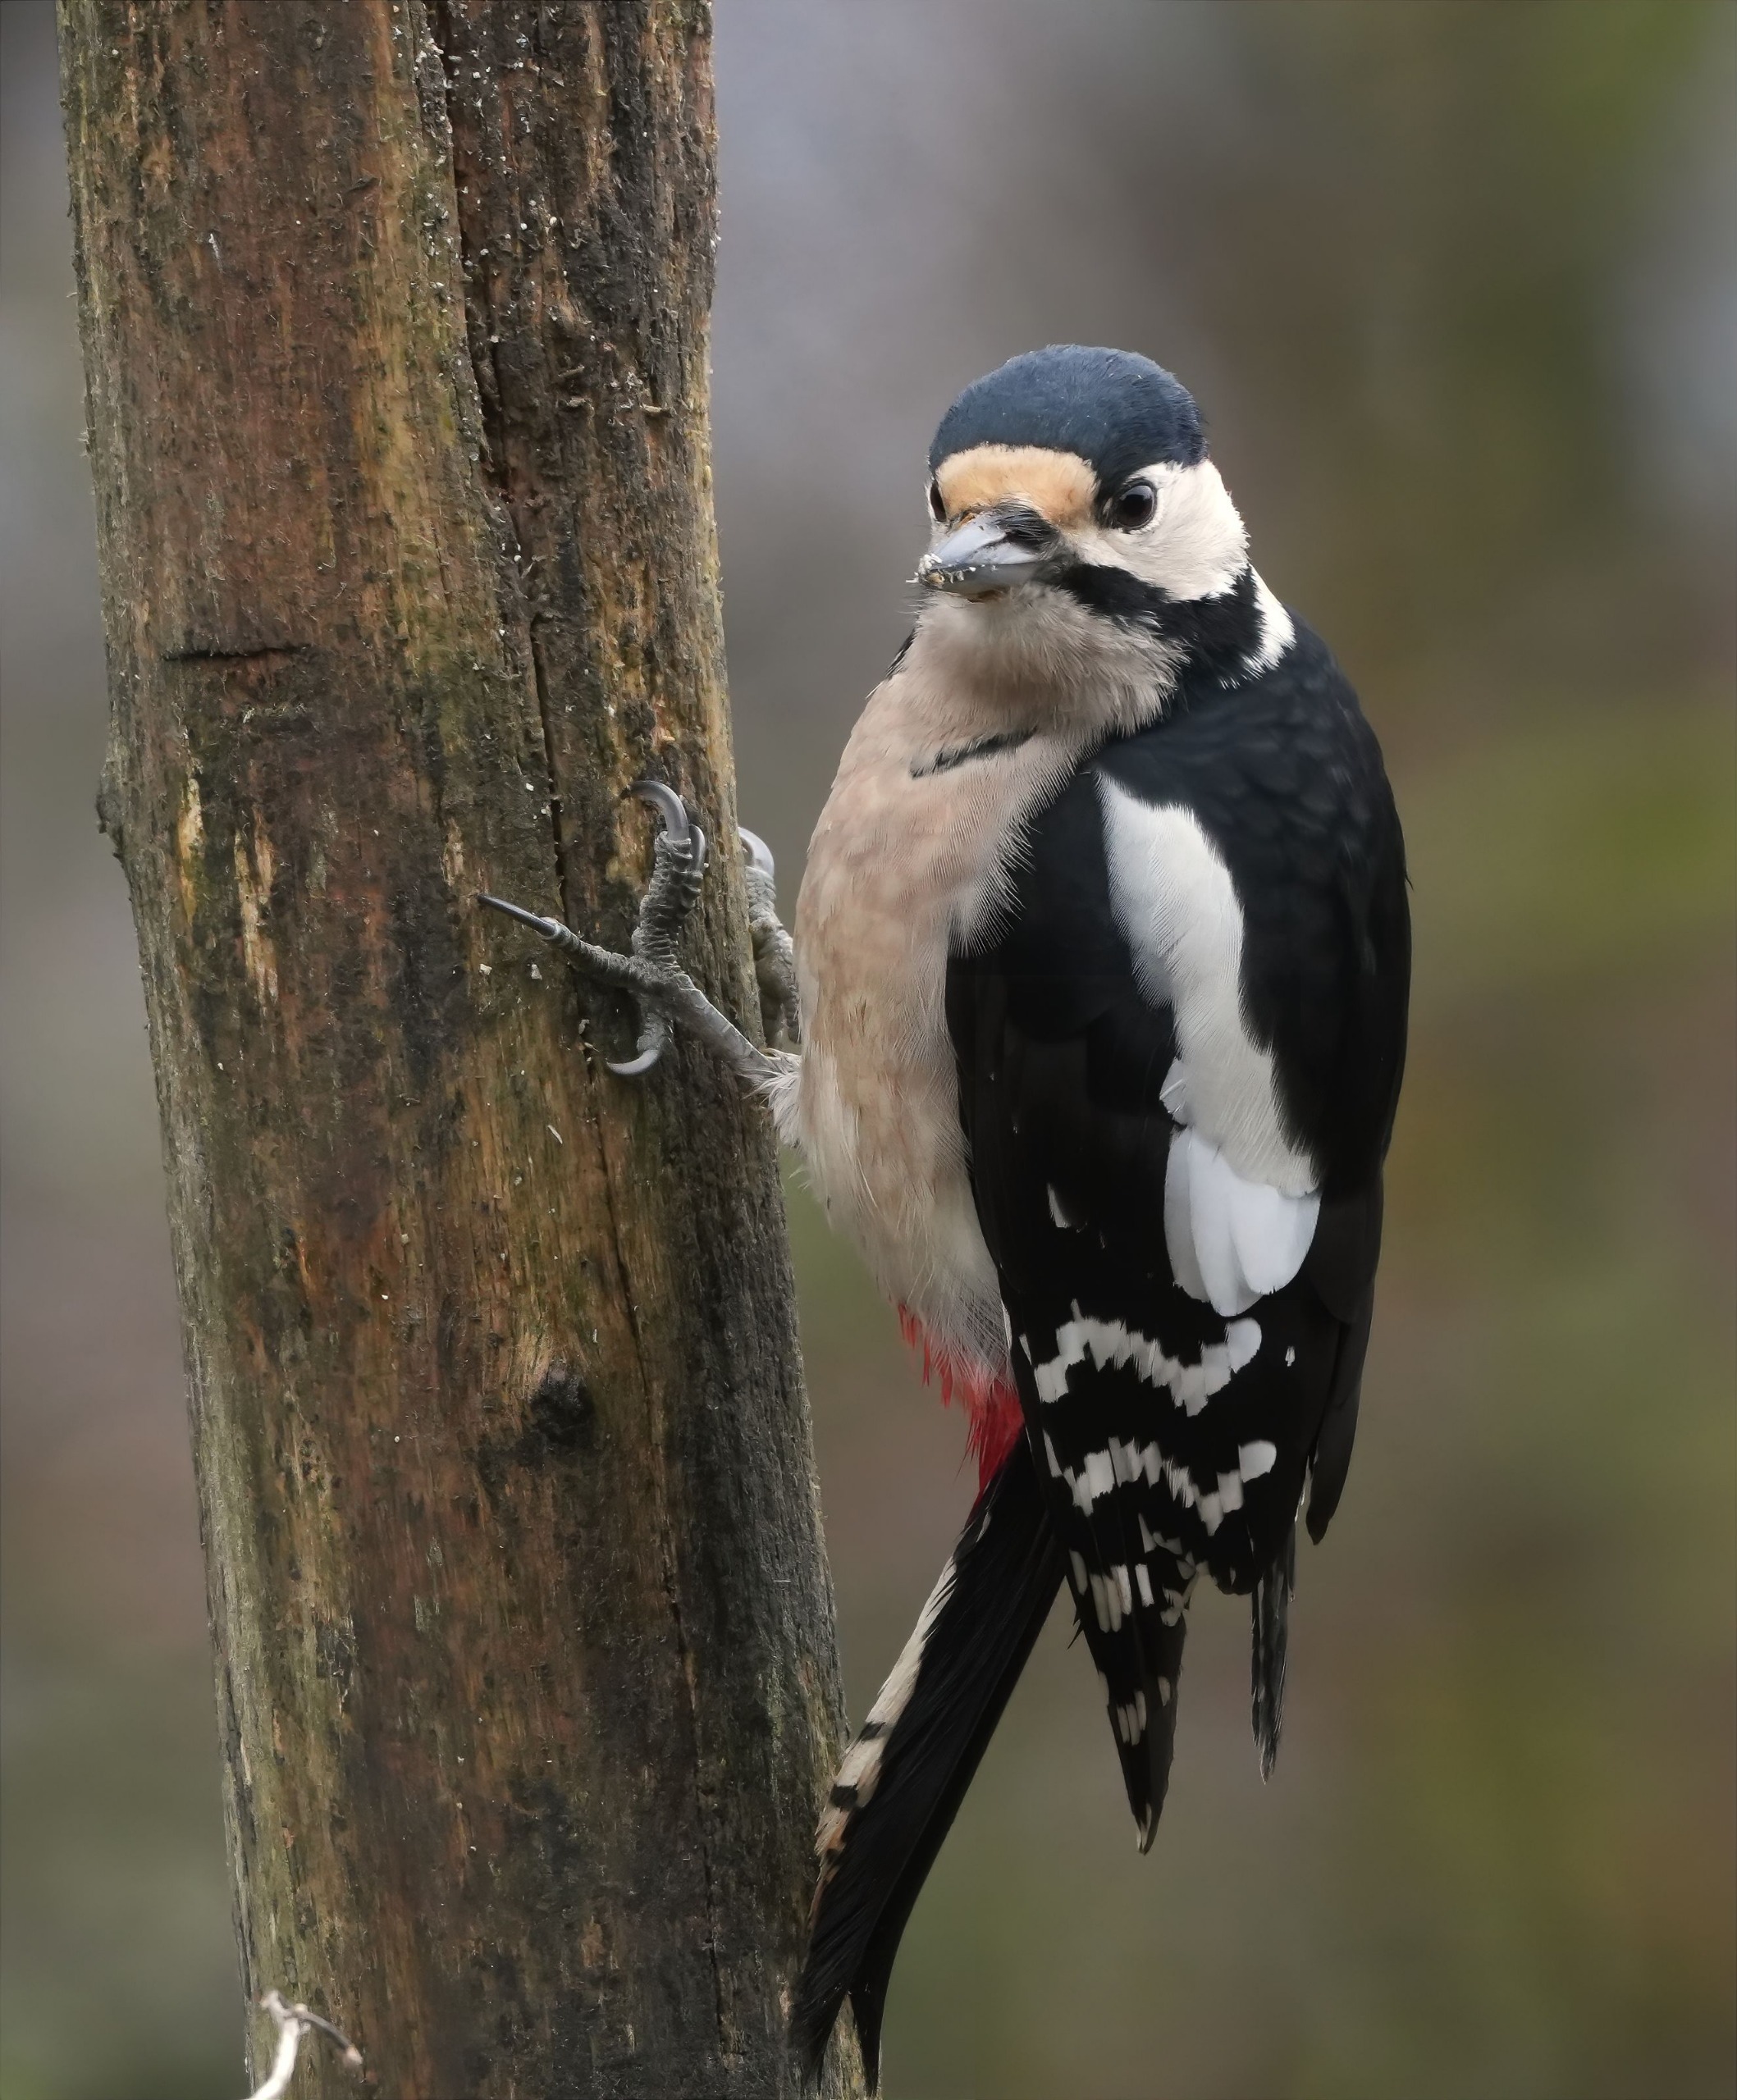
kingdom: Animalia
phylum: Chordata
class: Aves
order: Piciformes
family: Picidae
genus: Dendrocopos
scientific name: Dendrocopos major
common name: Stor flagspætte
